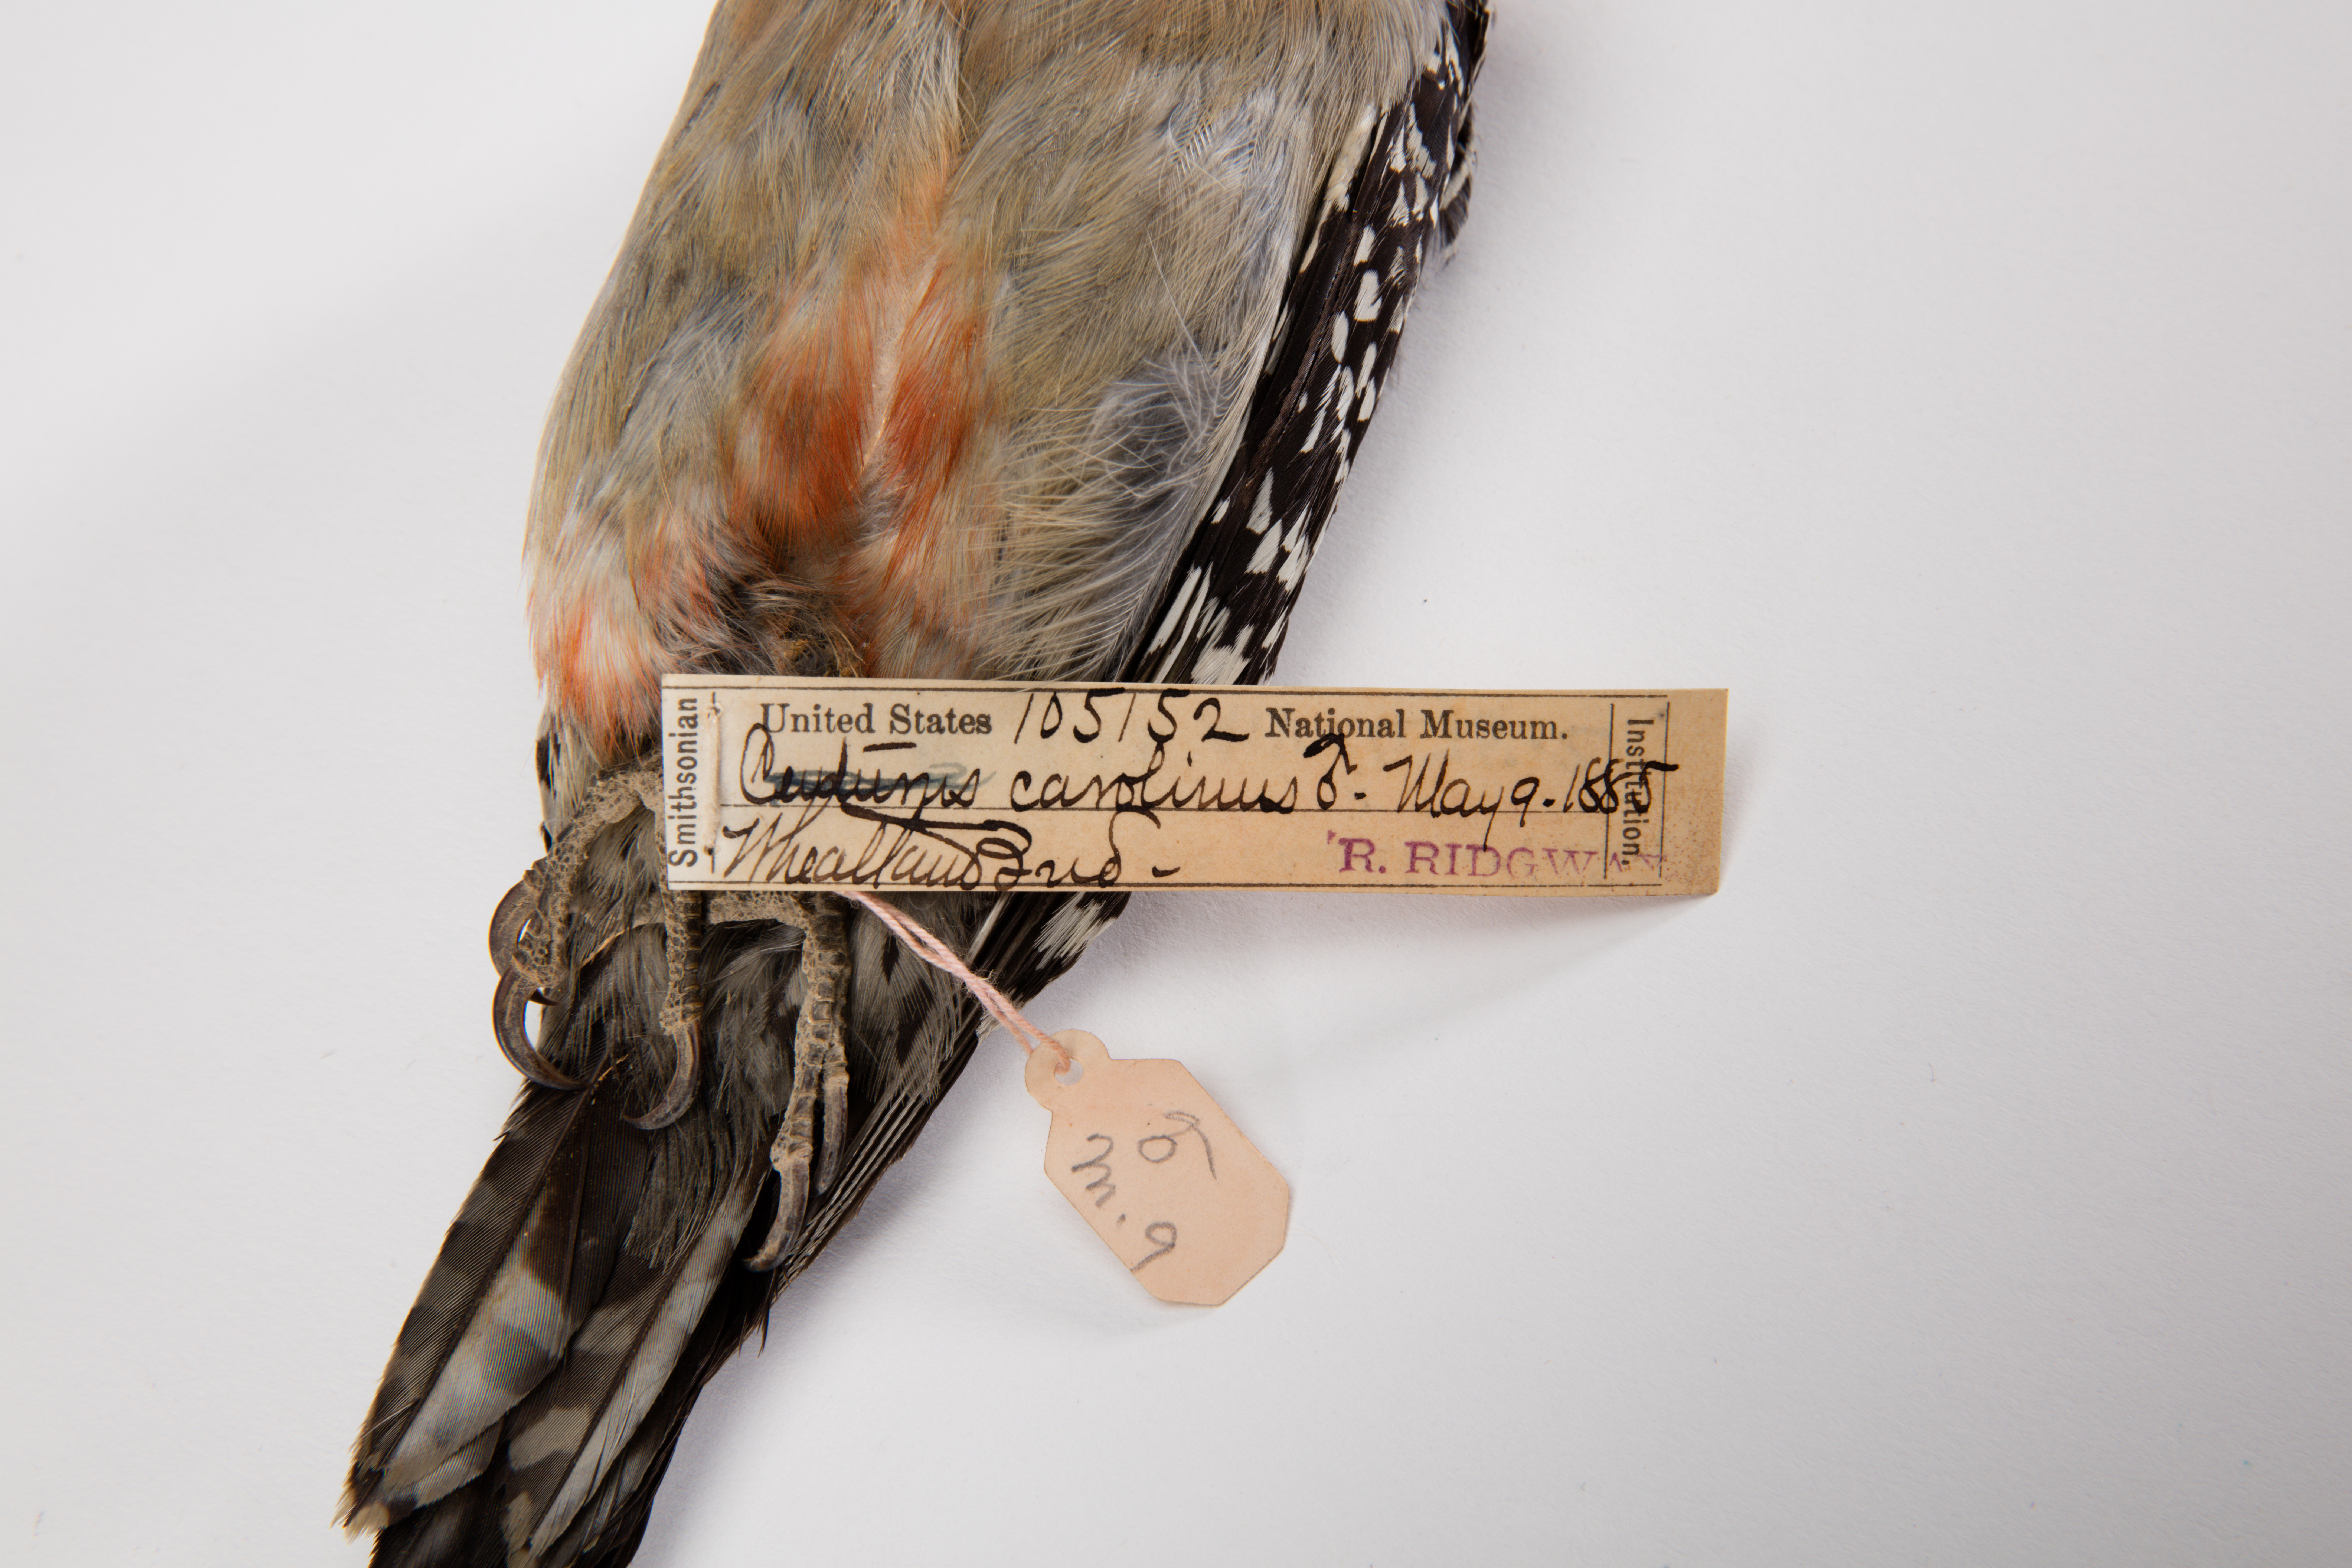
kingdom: Animalia
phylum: Chordata
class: Aves
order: Piciformes
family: Picidae
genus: Melanerpes
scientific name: Melanerpes carolinus
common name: Red-bellied woodpecker
